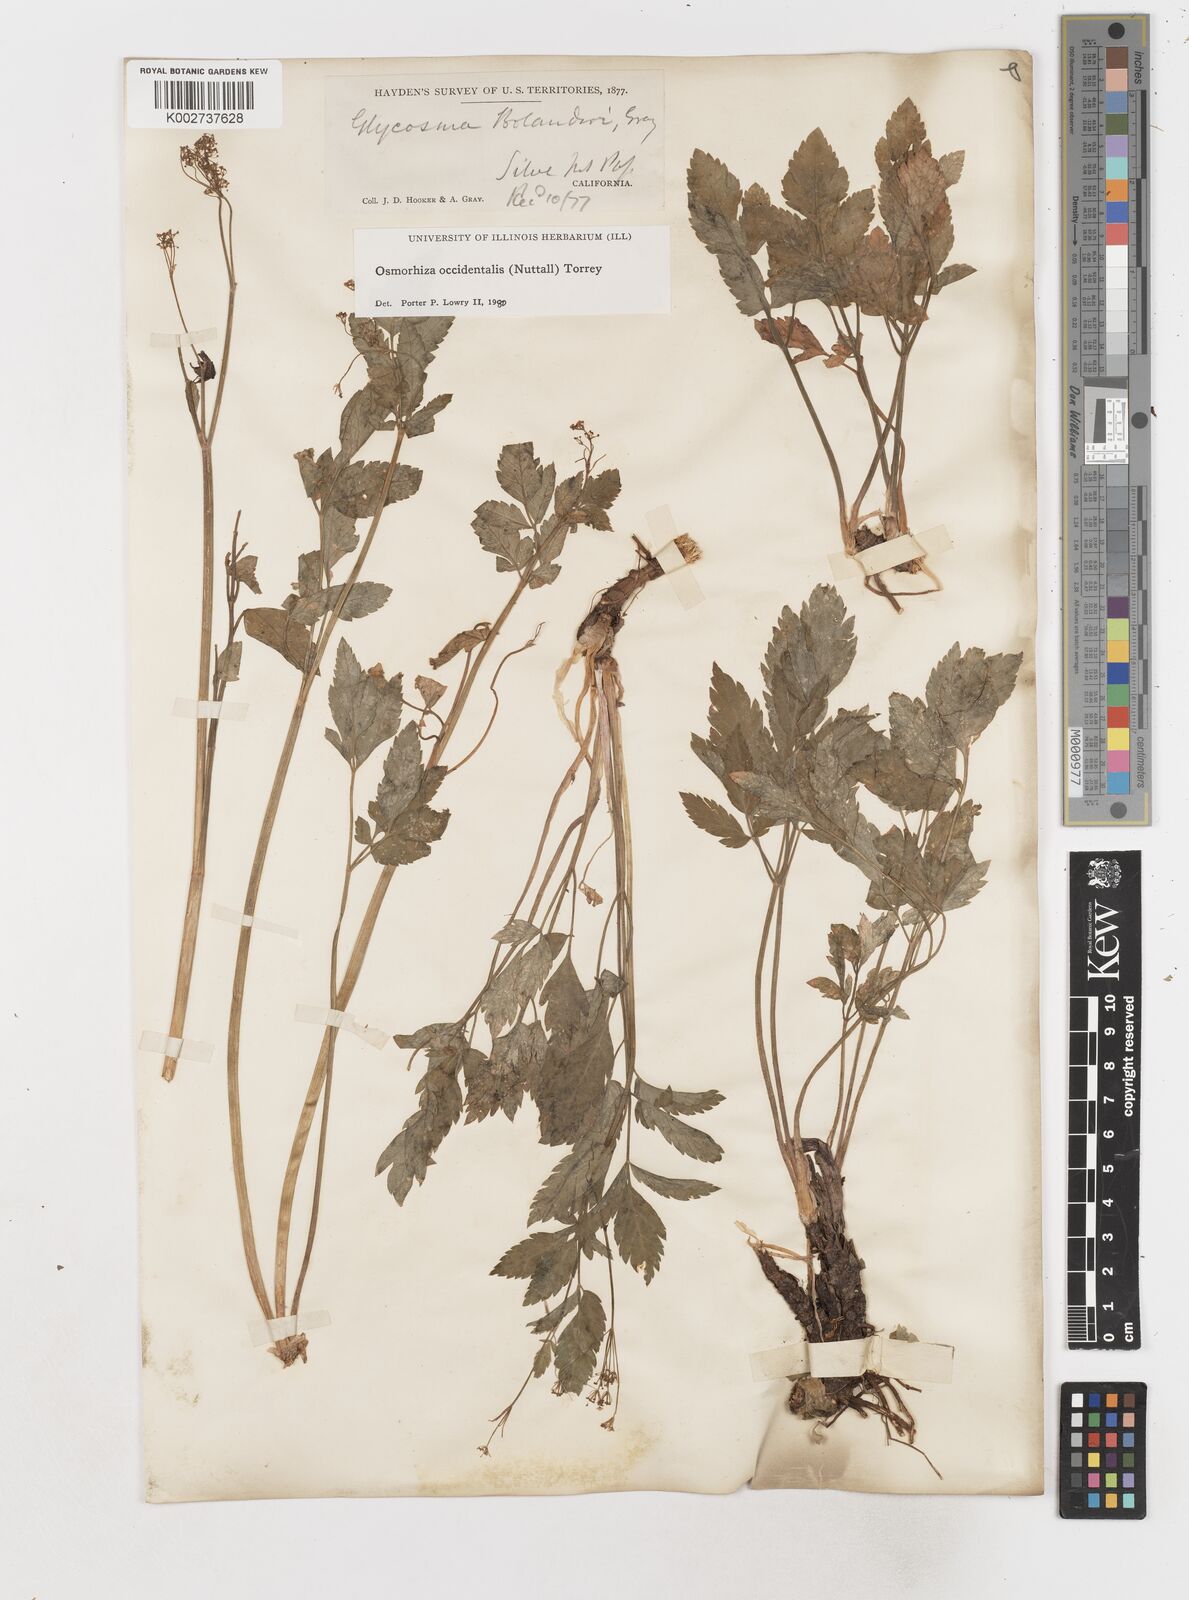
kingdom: Plantae
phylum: Tracheophyta
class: Magnoliopsida
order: Apiales
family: Apiaceae
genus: Osmorhiza
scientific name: Osmorhiza occidentalis
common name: Western sweet cicely
